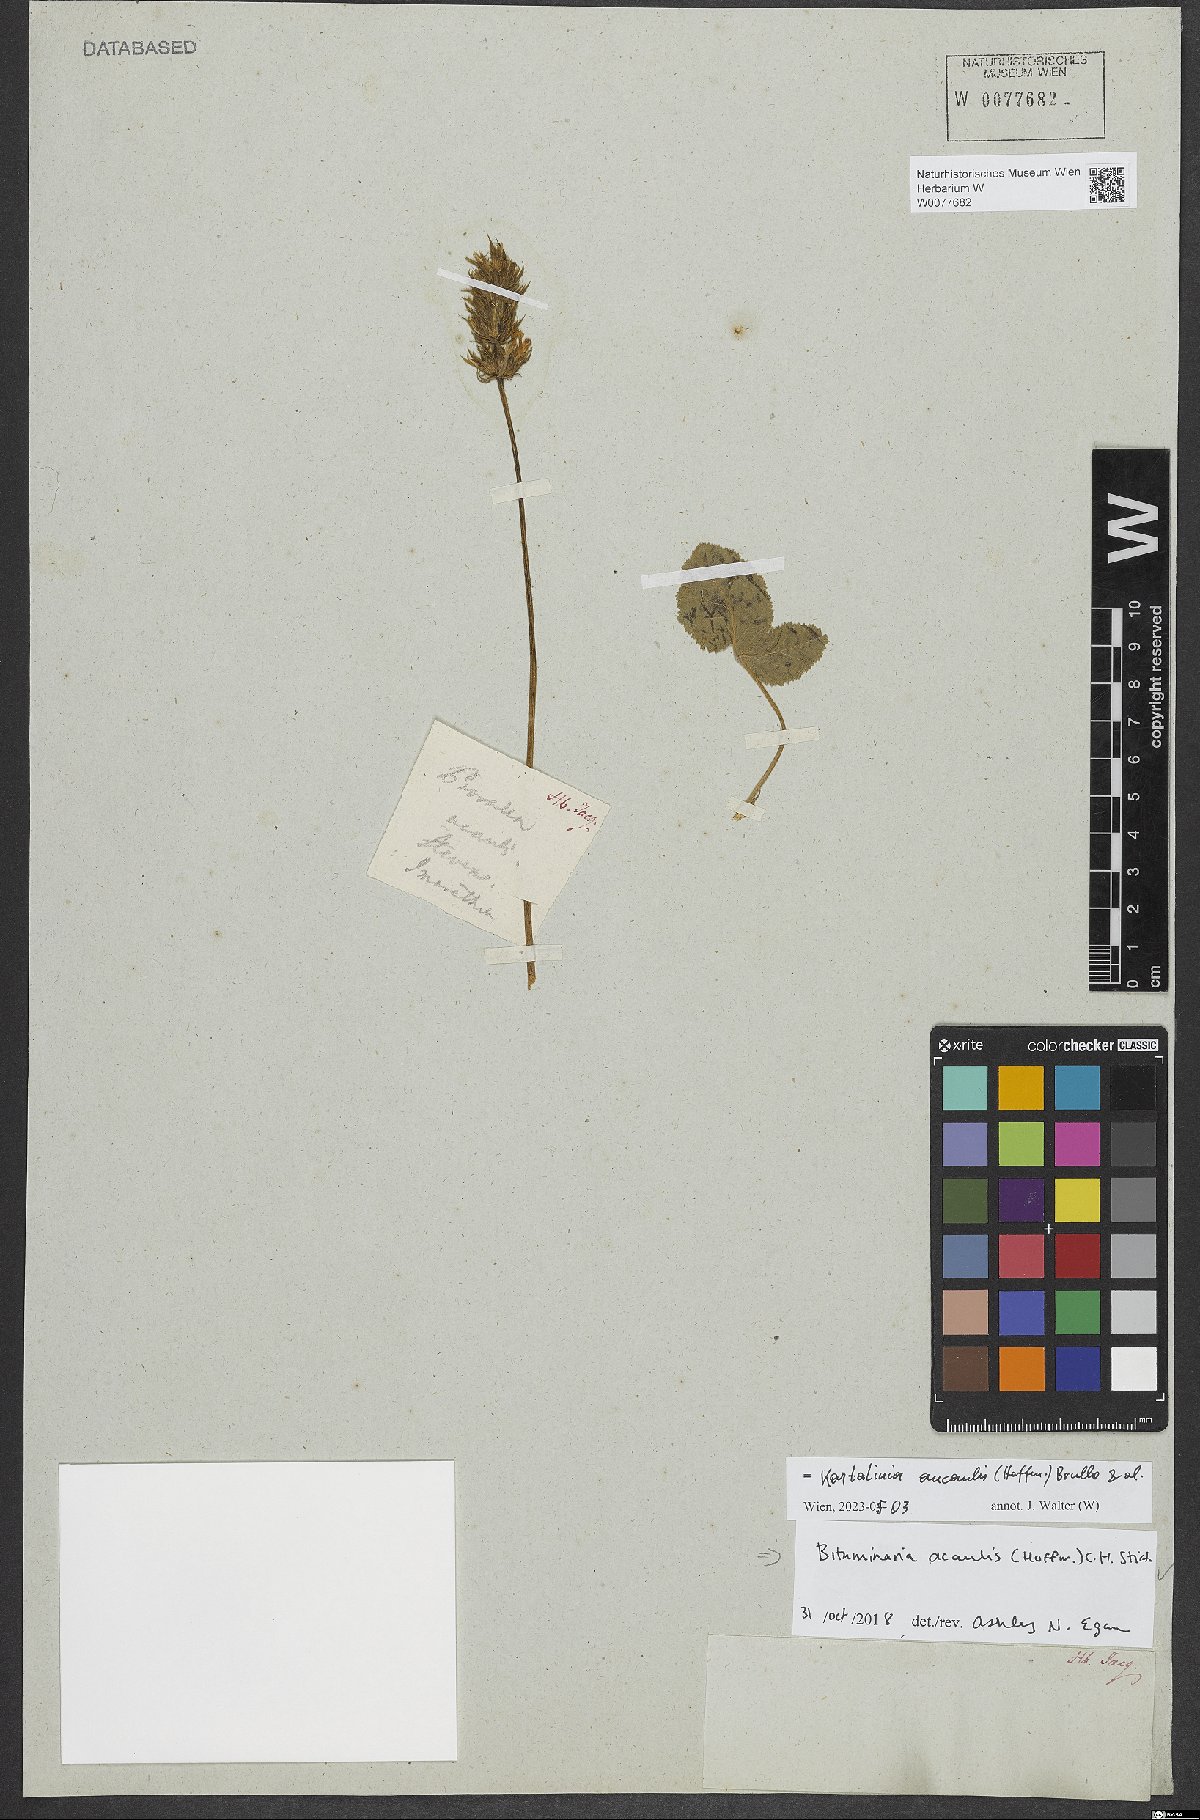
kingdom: Plantae
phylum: Tracheophyta
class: Magnoliopsida
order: Fabales
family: Fabaceae
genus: Kartalinia
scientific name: Kartalinia acaulis
